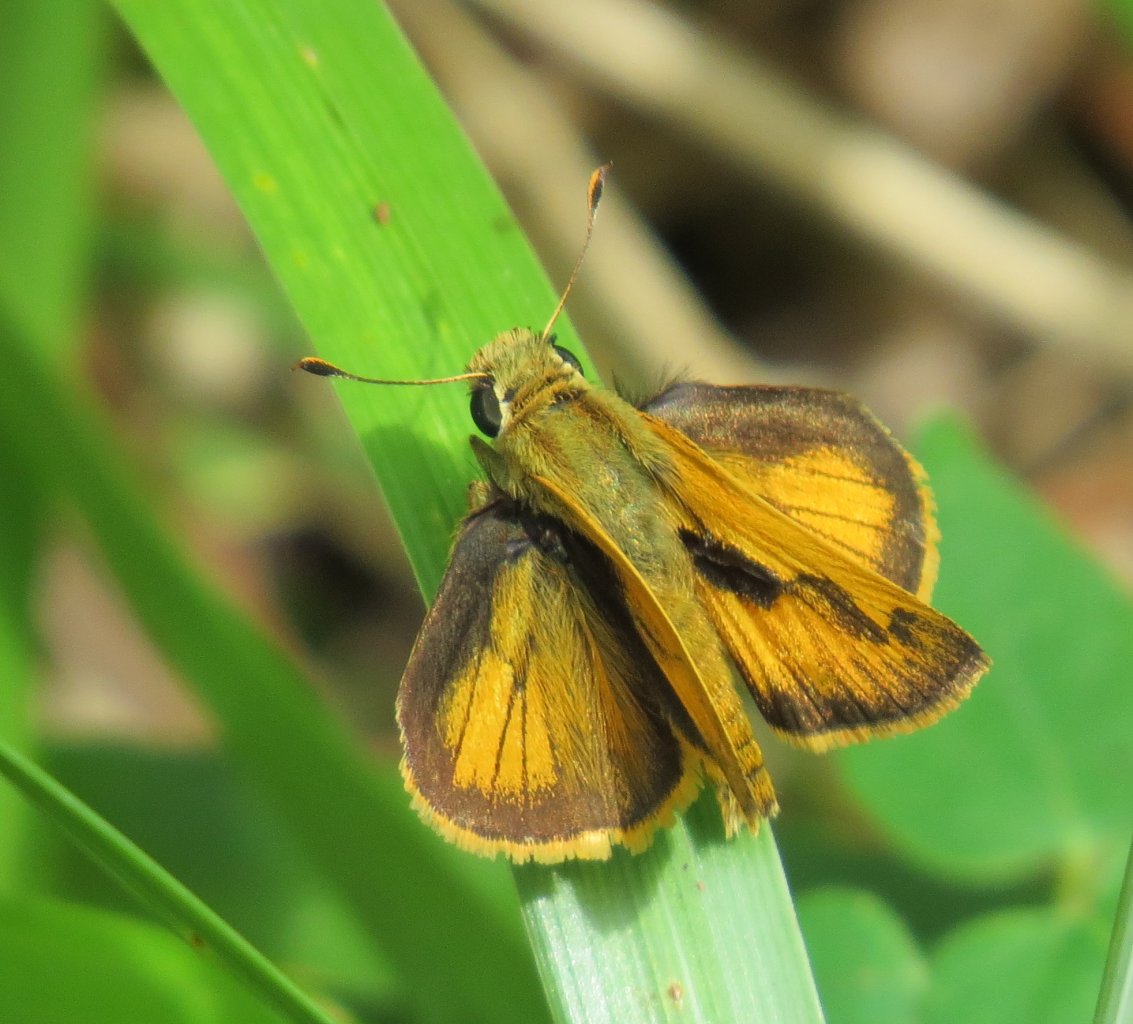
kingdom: Animalia
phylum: Arthropoda
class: Insecta
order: Lepidoptera
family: Hesperiidae
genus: Polites
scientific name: Polites vibex
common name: Whirlabout
